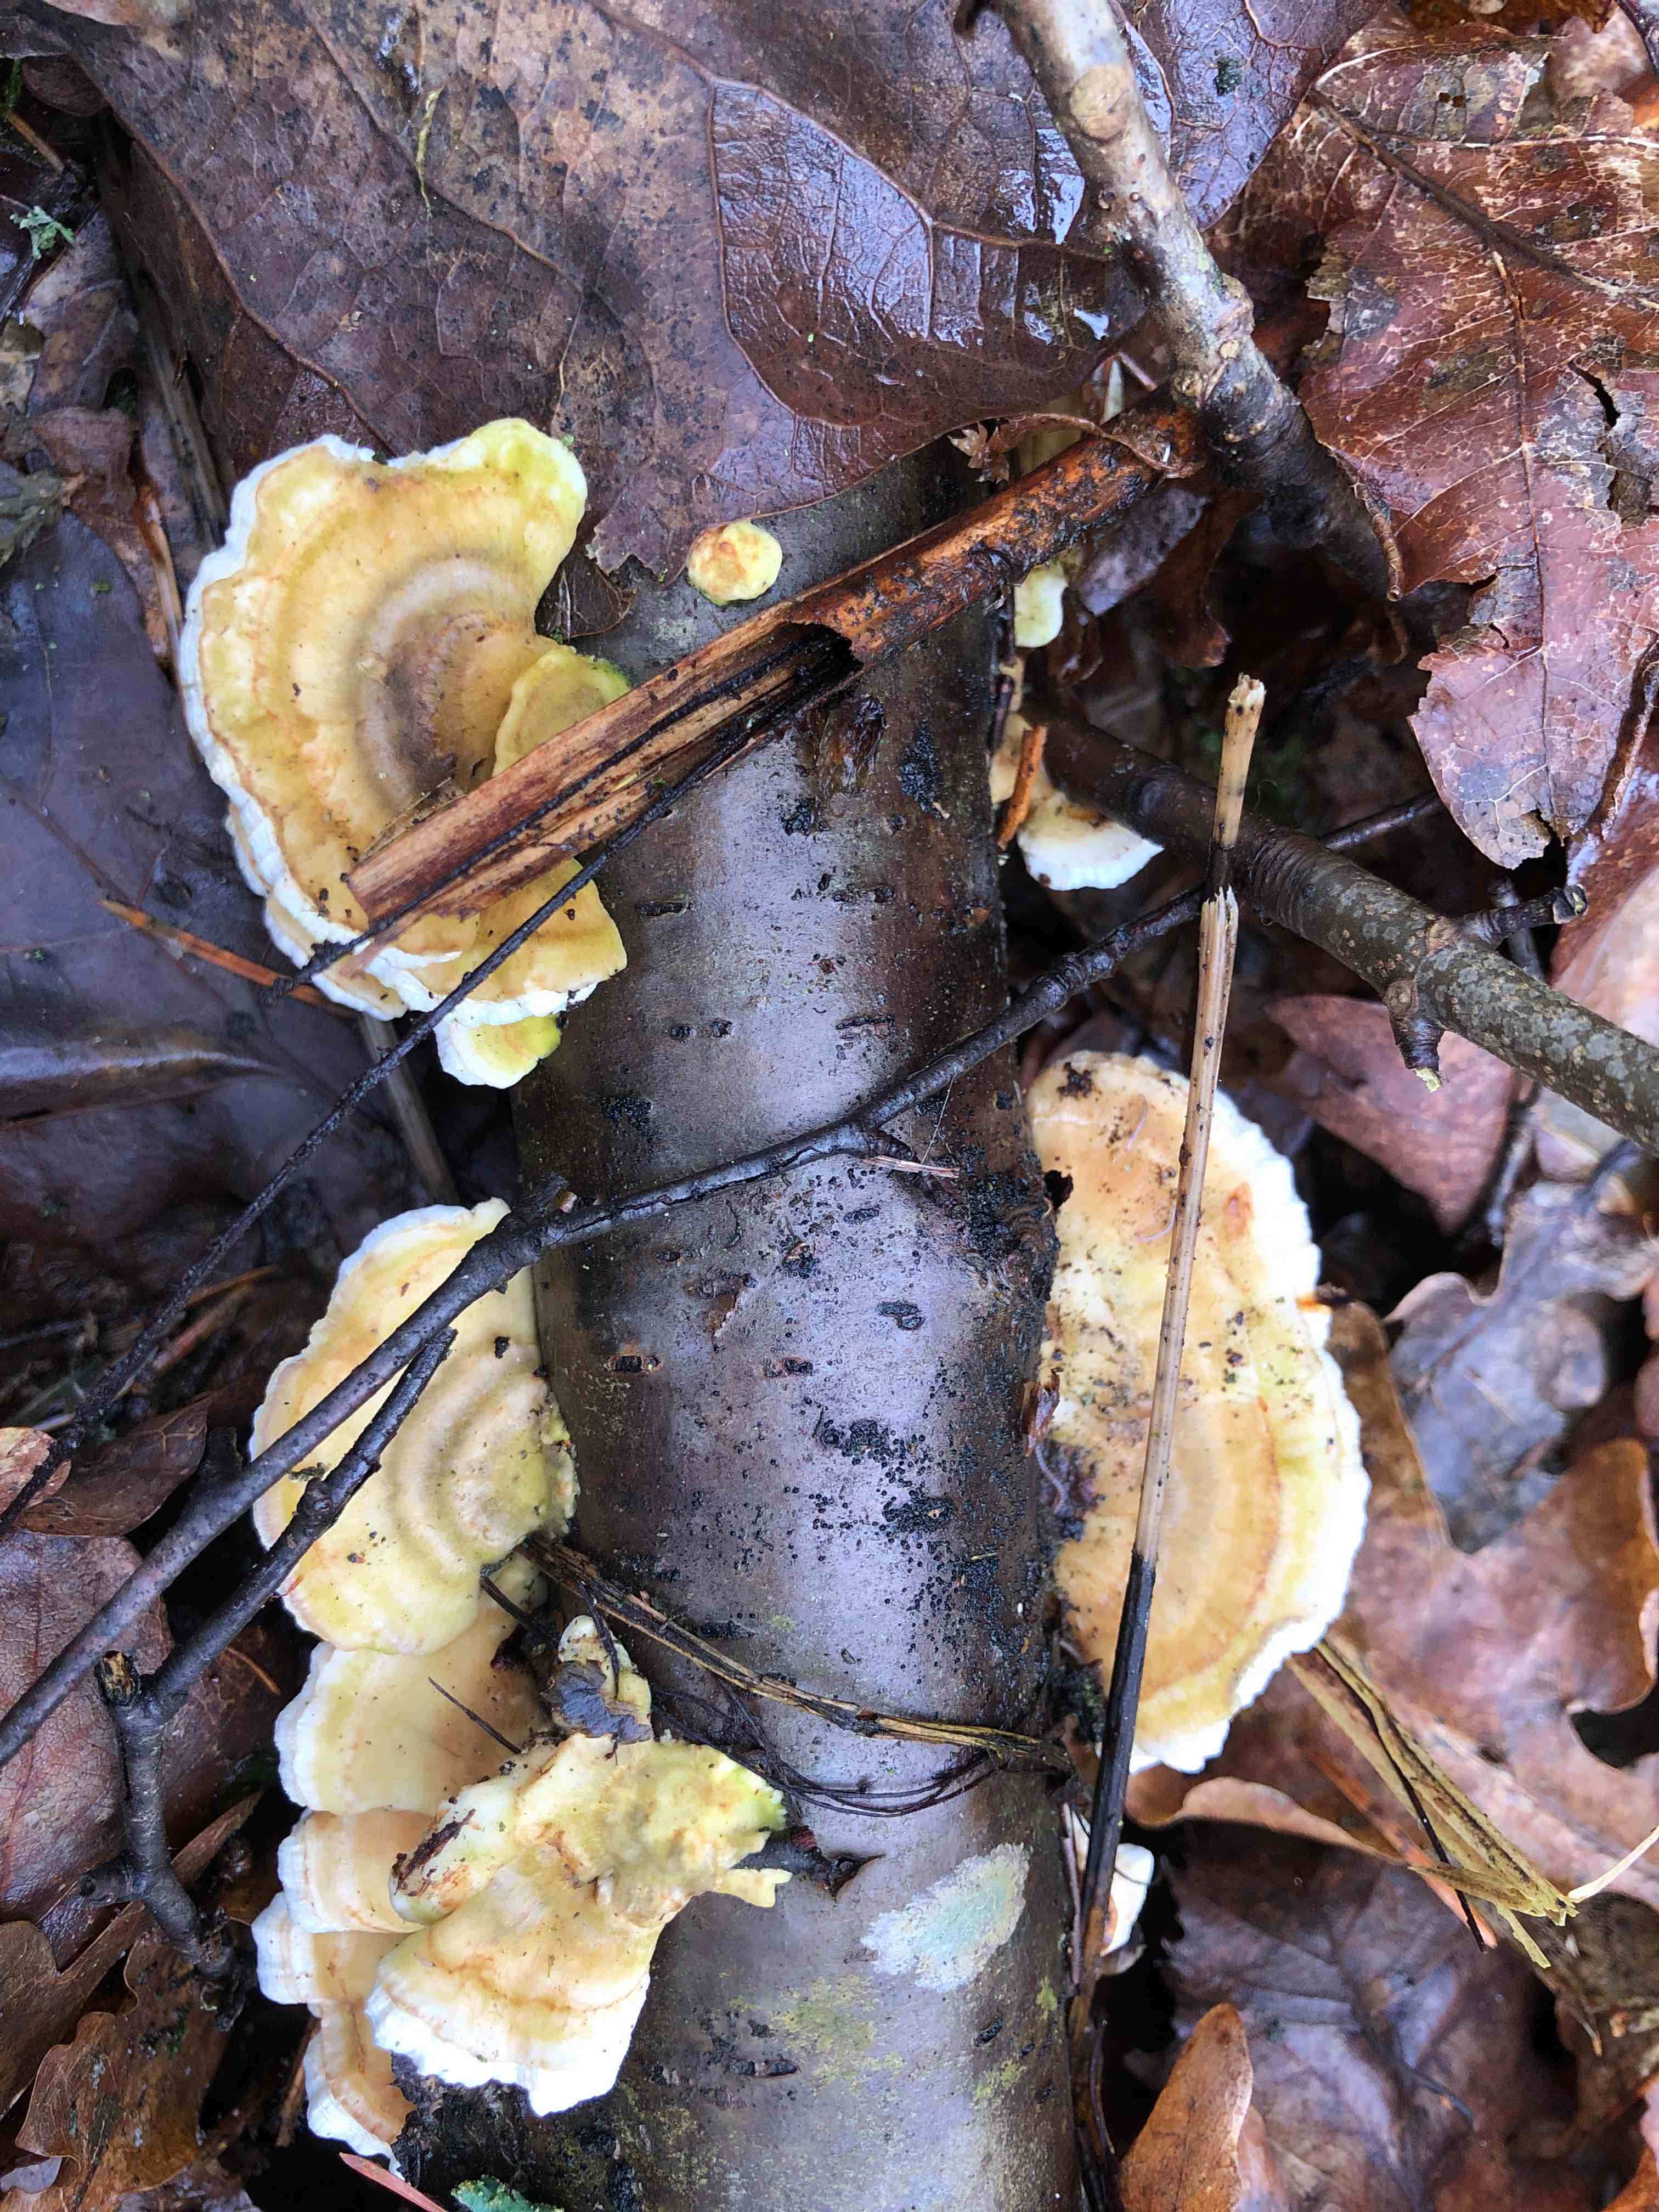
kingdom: Fungi
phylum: Basidiomycota
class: Agaricomycetes
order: Polyporales
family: Polyporaceae
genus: Trametes
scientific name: Trametes
